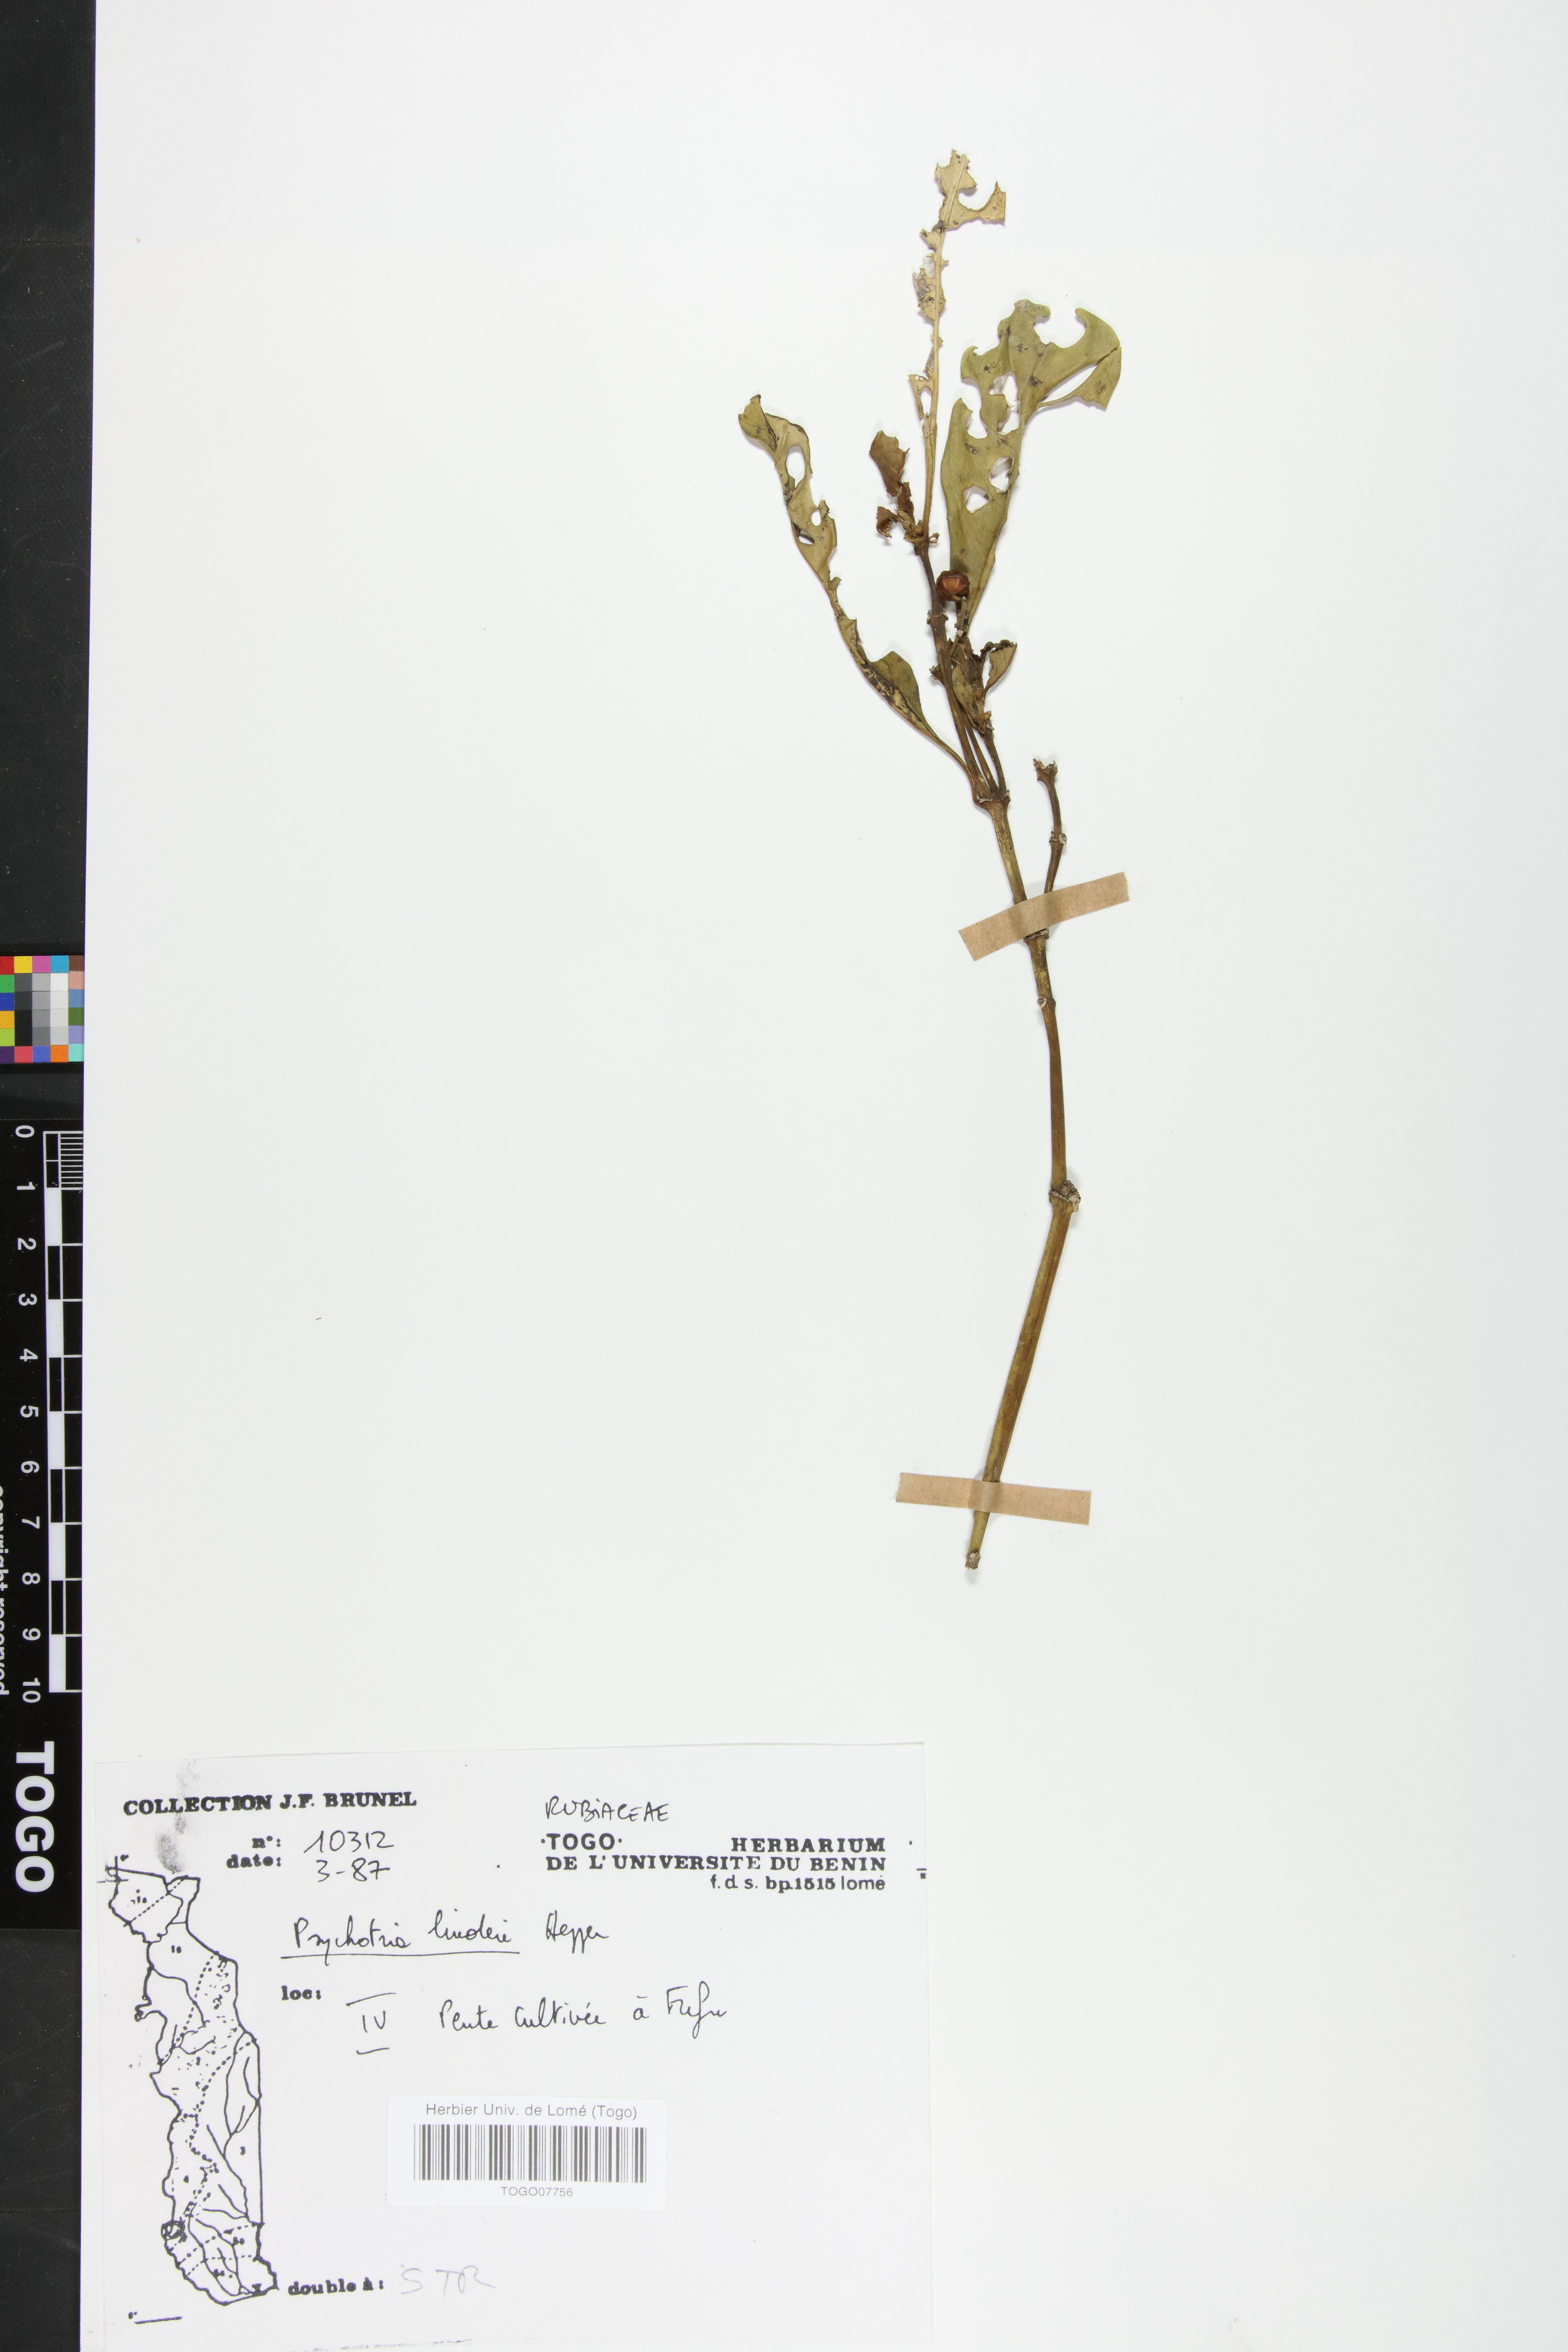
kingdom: Plantae
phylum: Tracheophyta
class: Magnoliopsida
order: Gentianales
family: Rubiaceae
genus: Psychotria
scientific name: Psychotria linderi
